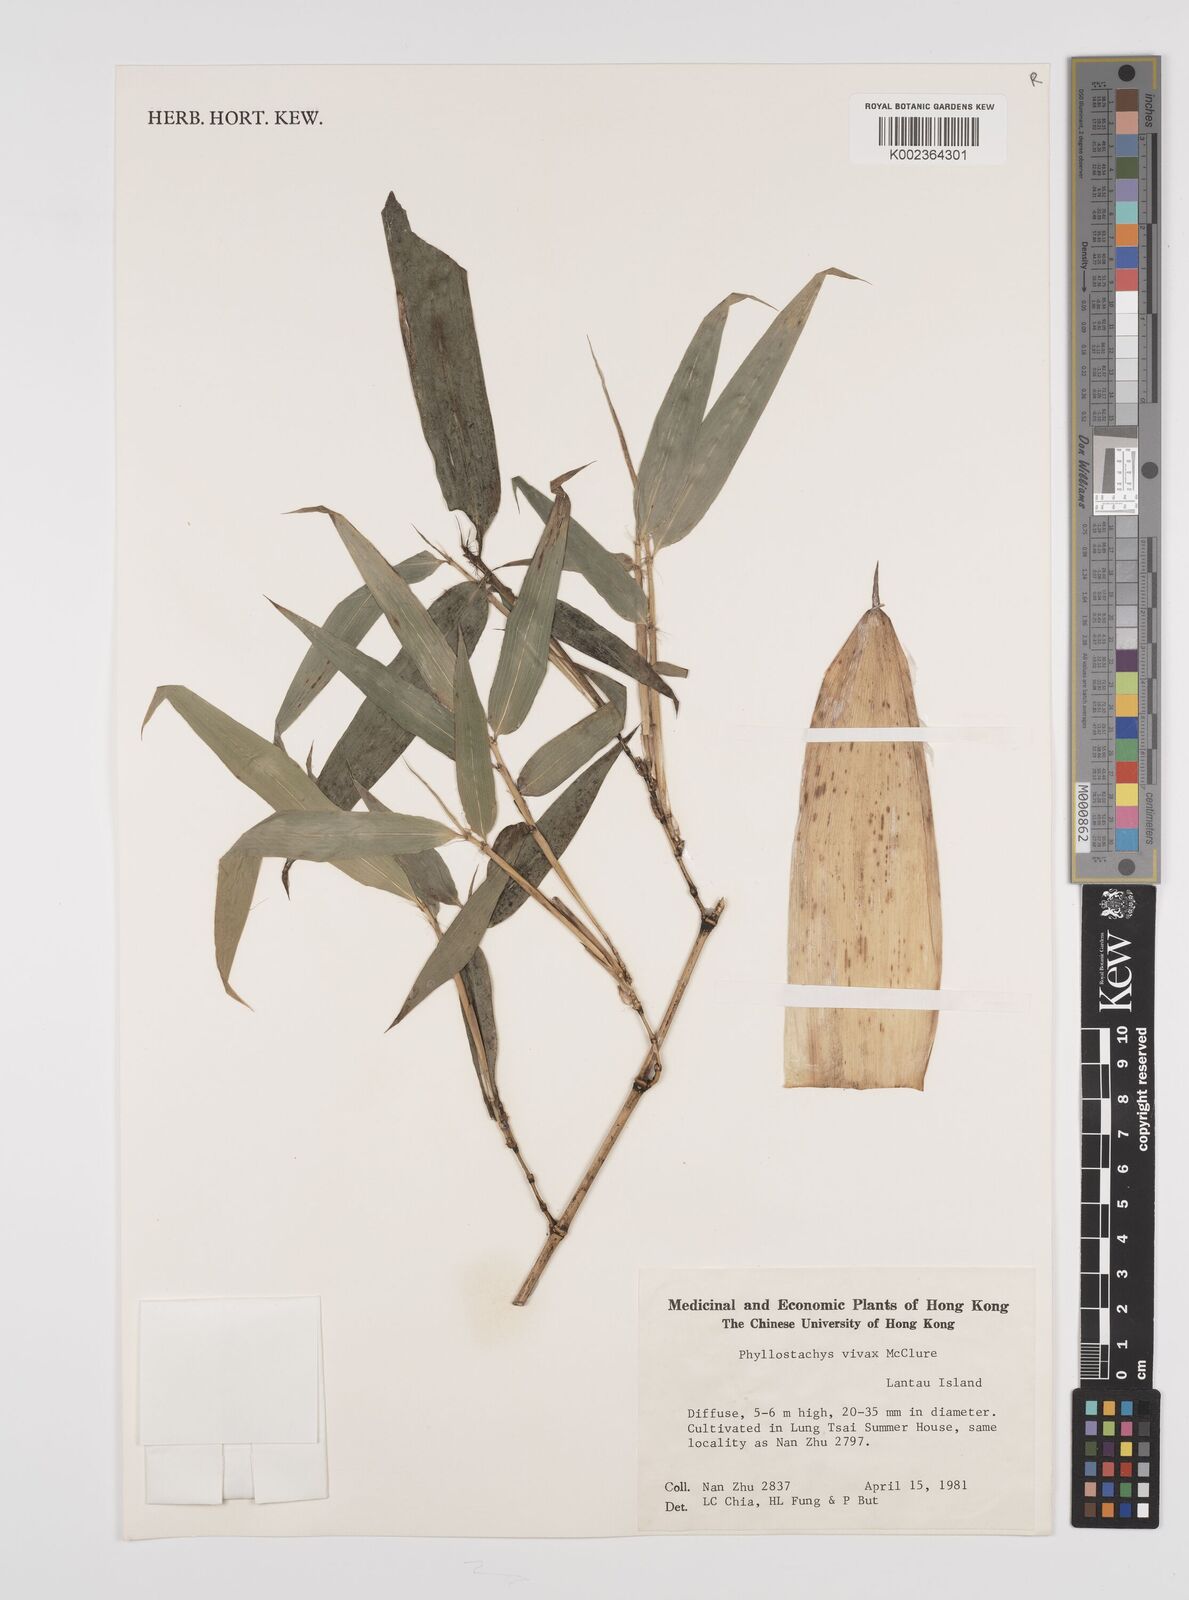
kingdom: Plantae
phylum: Tracheophyta
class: Liliopsida
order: Poales
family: Poaceae
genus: Phyllostachys
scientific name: Phyllostachys vivax
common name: Smooth-sheath bamboo
